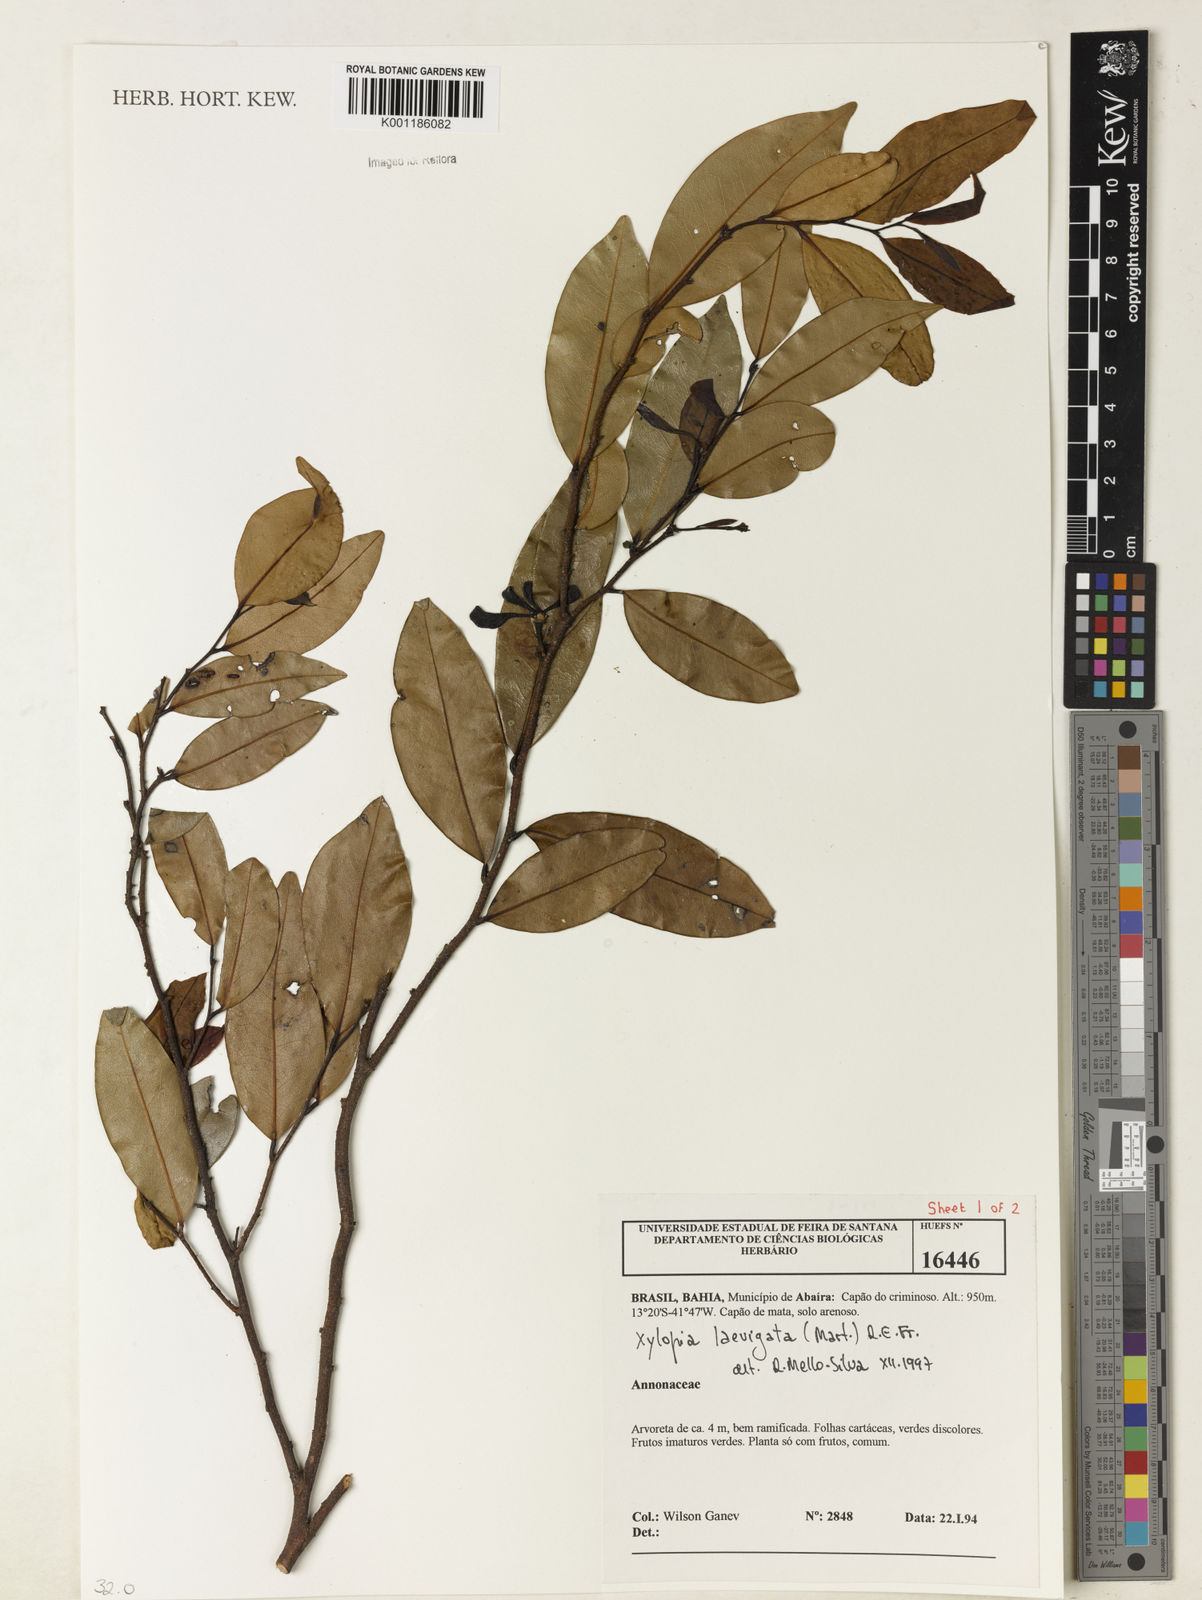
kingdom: Plantae
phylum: Tracheophyta
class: Magnoliopsida
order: Magnoliales
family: Annonaceae
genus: Xylopia
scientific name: Xylopia laevigata
